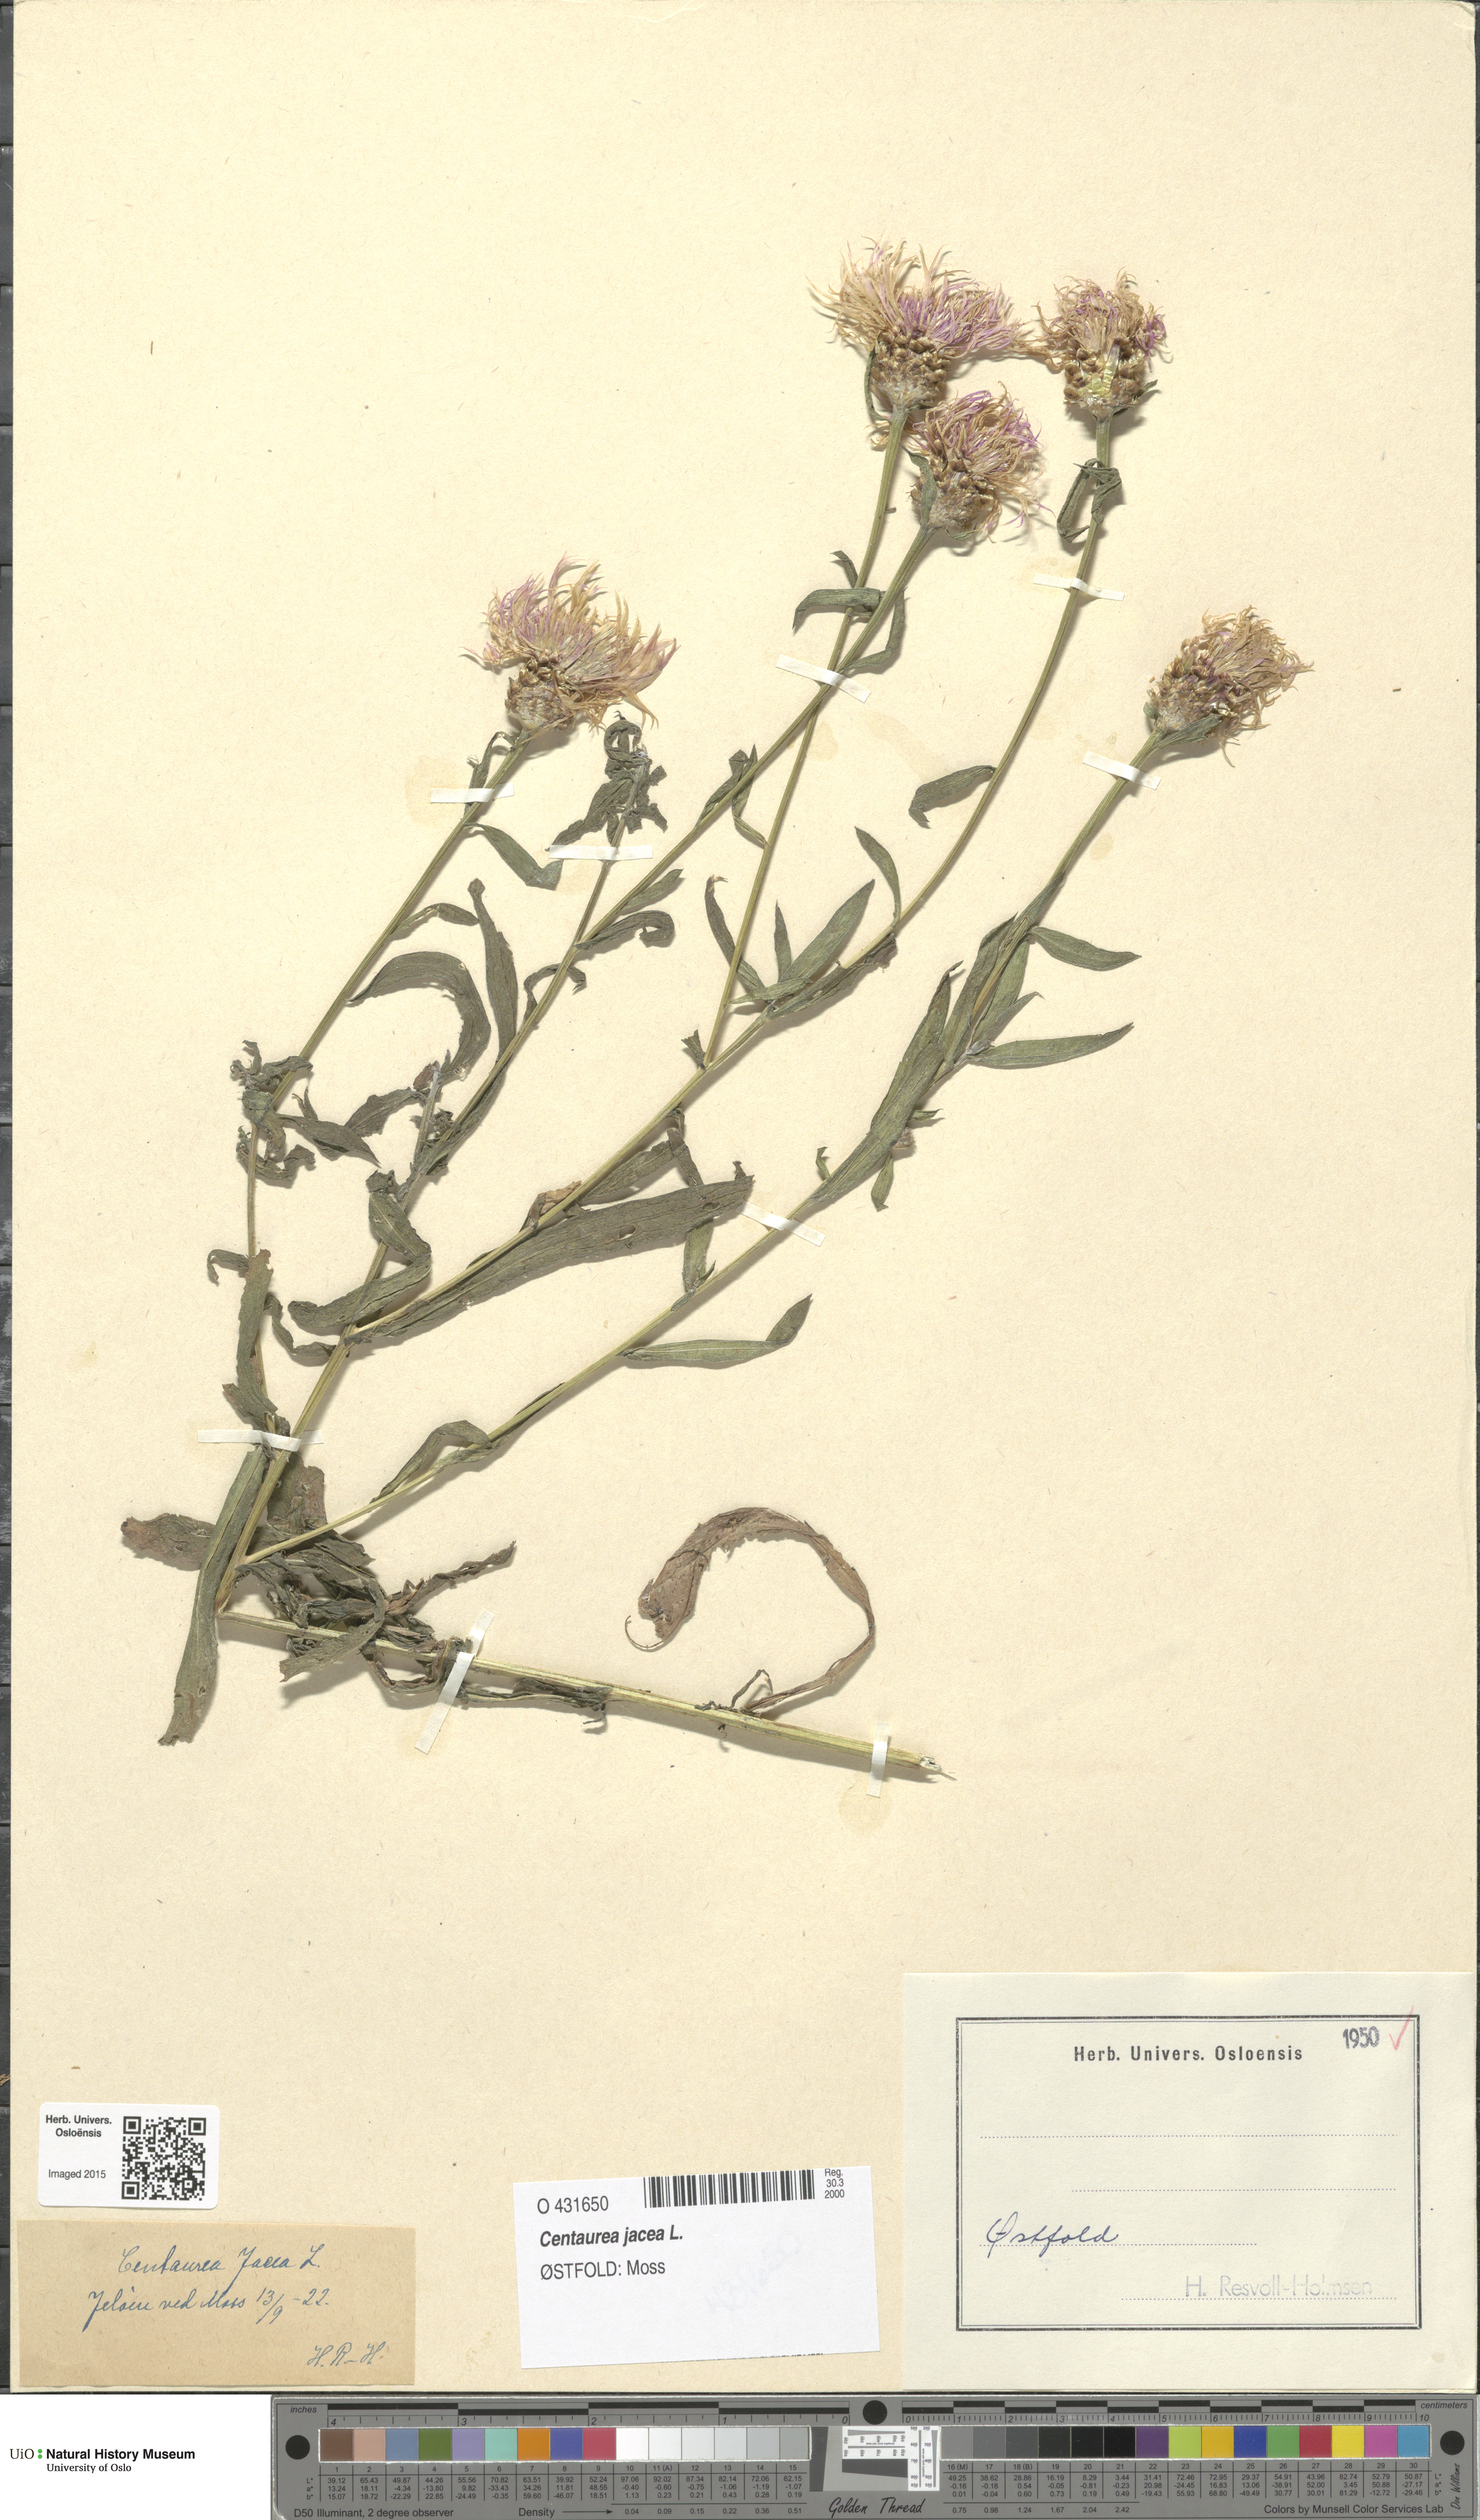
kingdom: Plantae
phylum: Tracheophyta
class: Magnoliopsida
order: Asterales
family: Asteraceae
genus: Centaurea
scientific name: Centaurea jacea
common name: Brown knapweed
